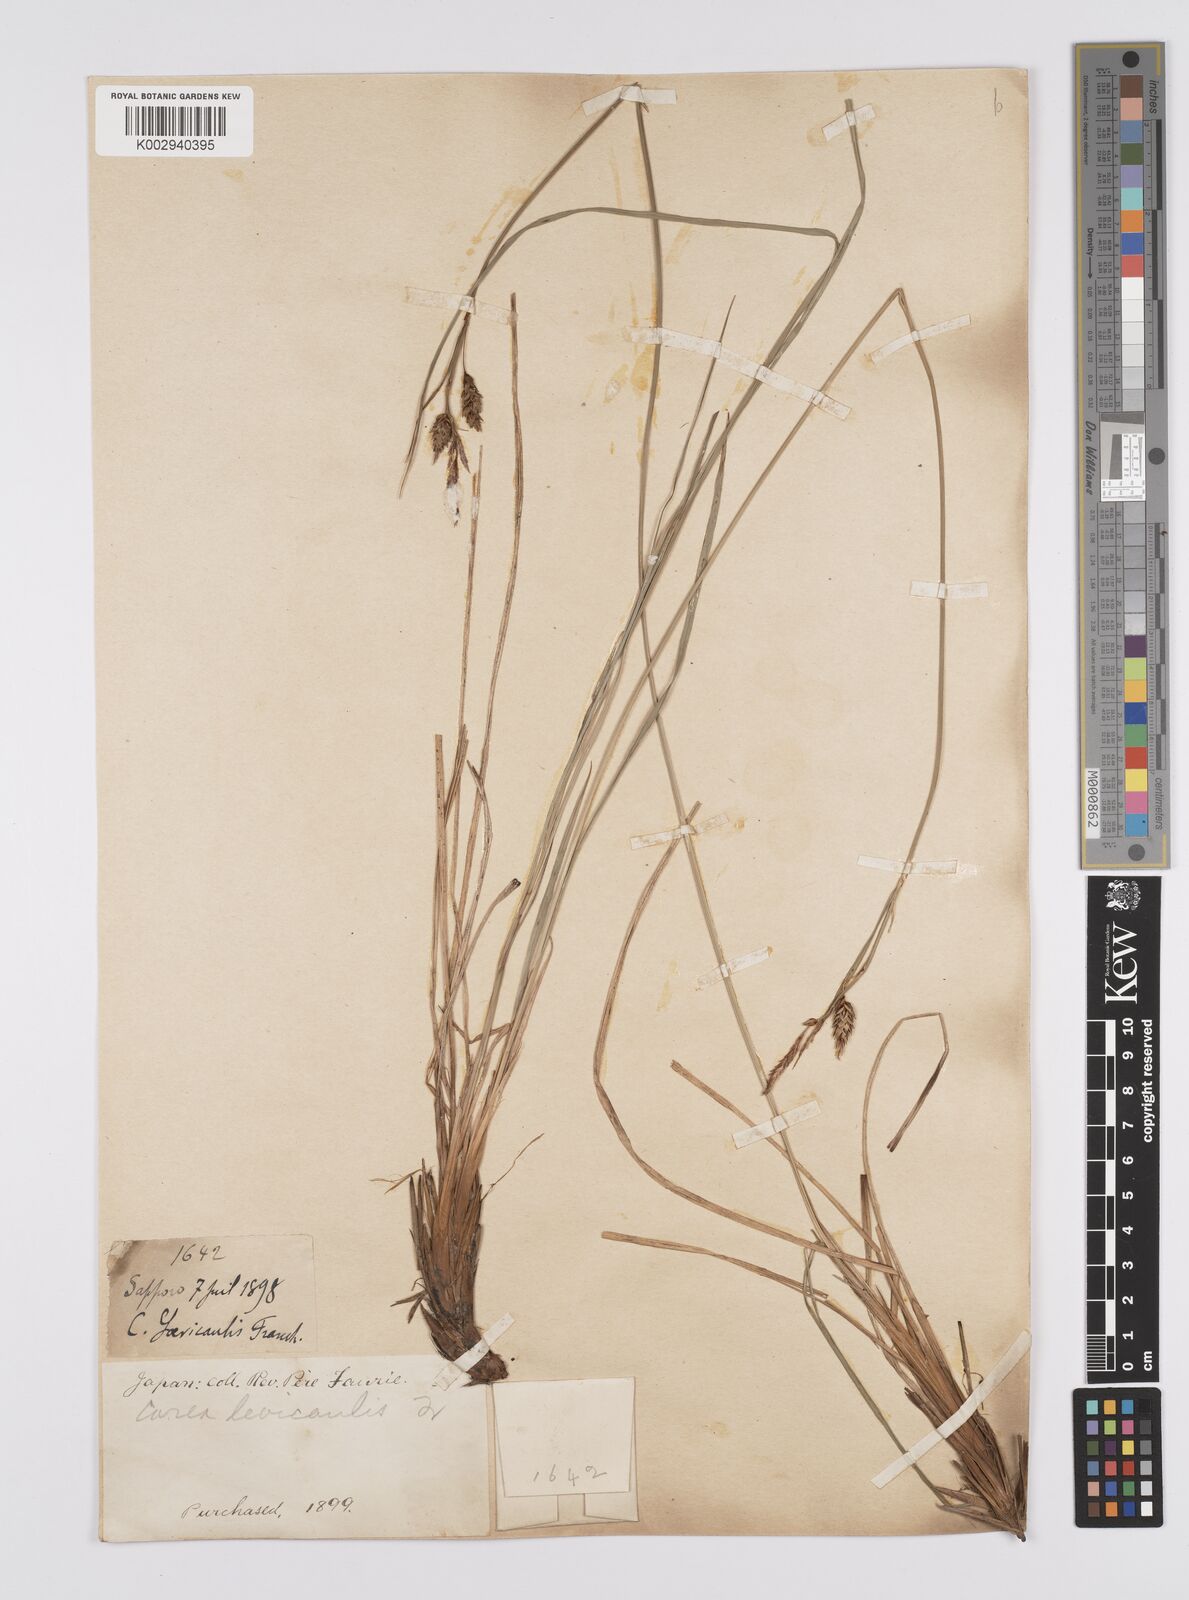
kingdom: Plantae
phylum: Tracheophyta
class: Liliopsida
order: Poales
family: Cyperaceae
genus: Carex
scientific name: Carex middendorffii
